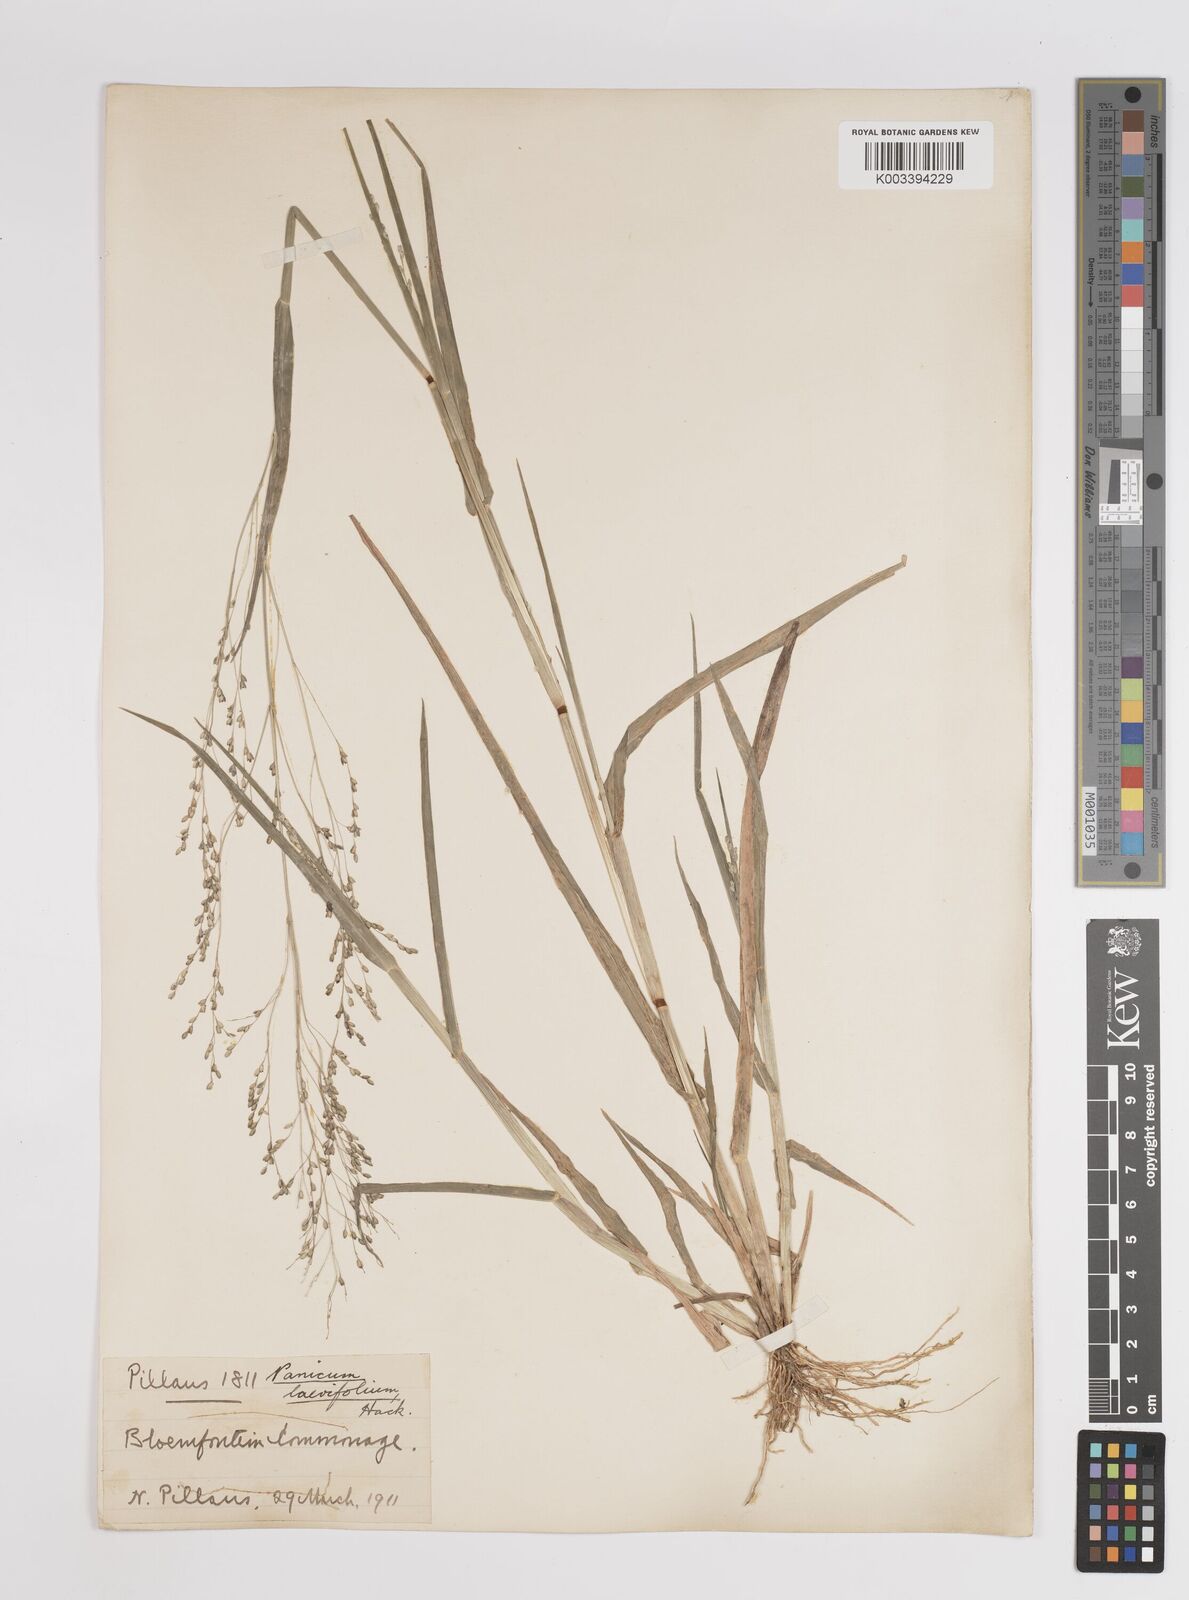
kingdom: Plantae
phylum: Tracheophyta
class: Liliopsida
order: Poales
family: Poaceae
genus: Panicum
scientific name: Panicum schinzii
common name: Sweet grass
